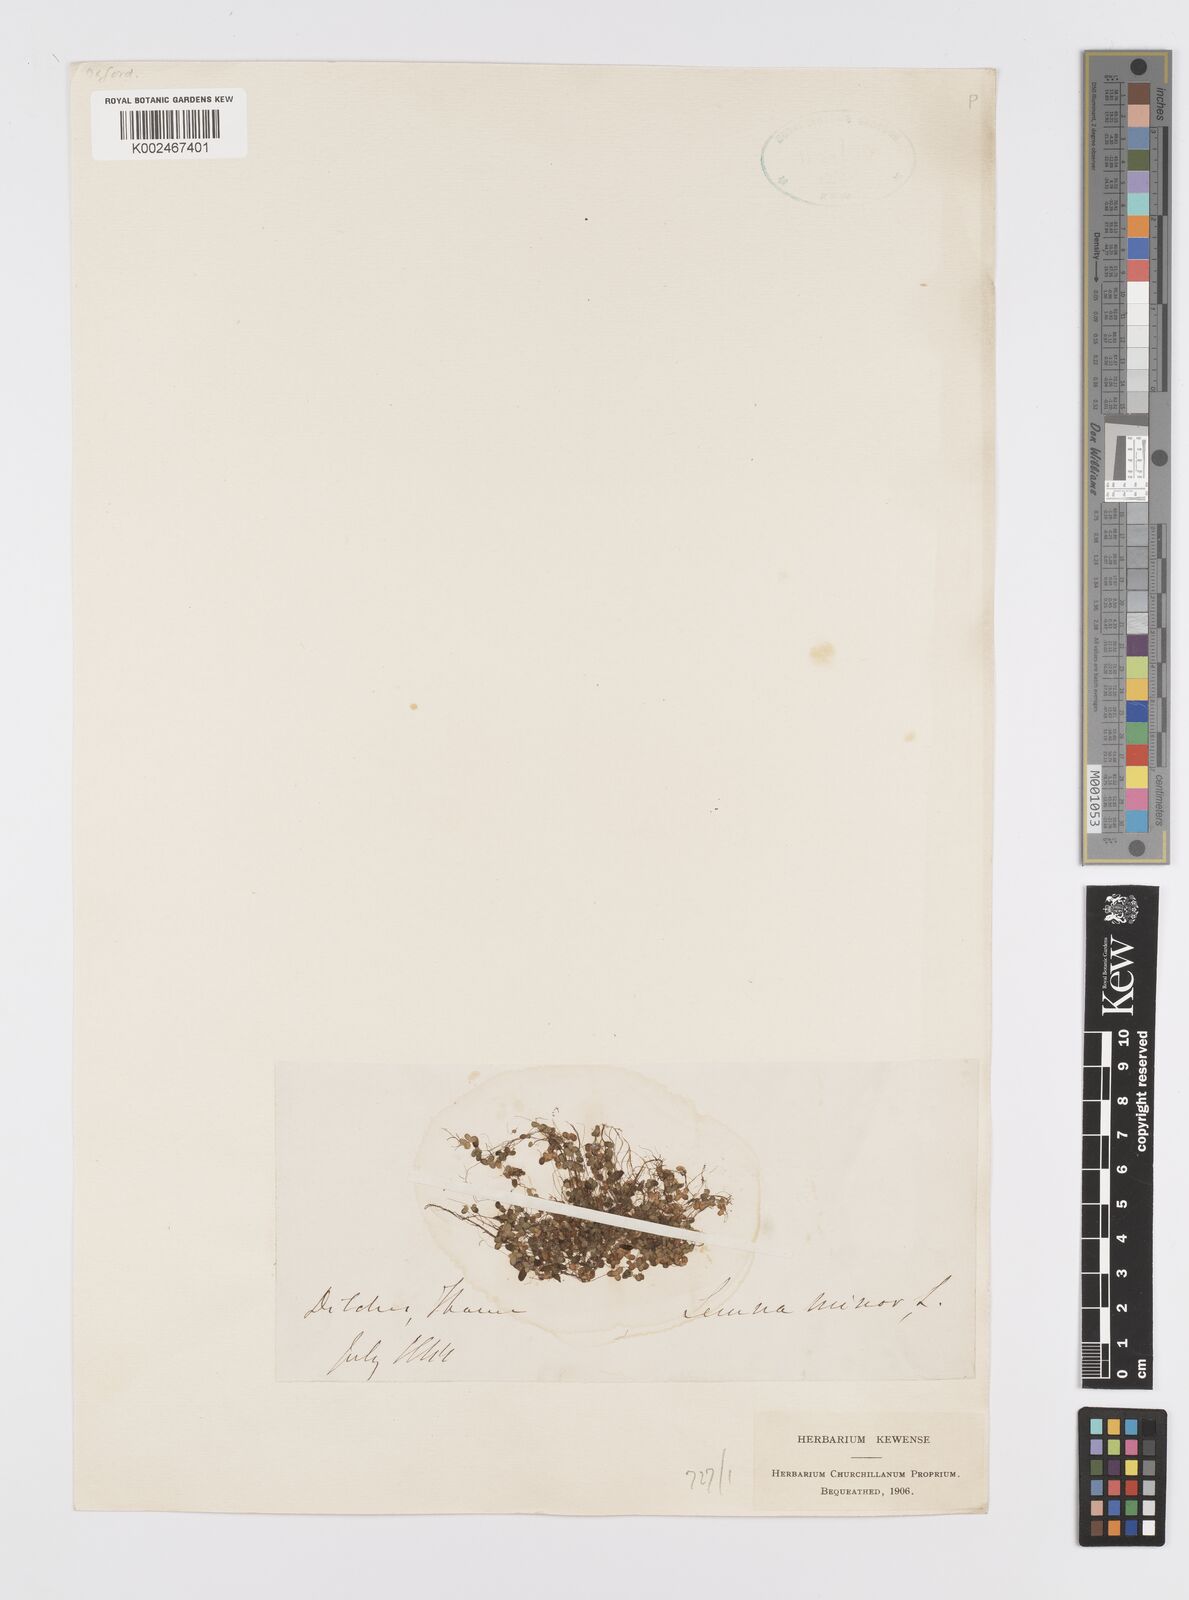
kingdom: Plantae
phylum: Tracheophyta
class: Liliopsida
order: Alismatales
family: Araceae
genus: Spirodela
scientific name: Spirodela polyrhiza
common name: Great duckweed
